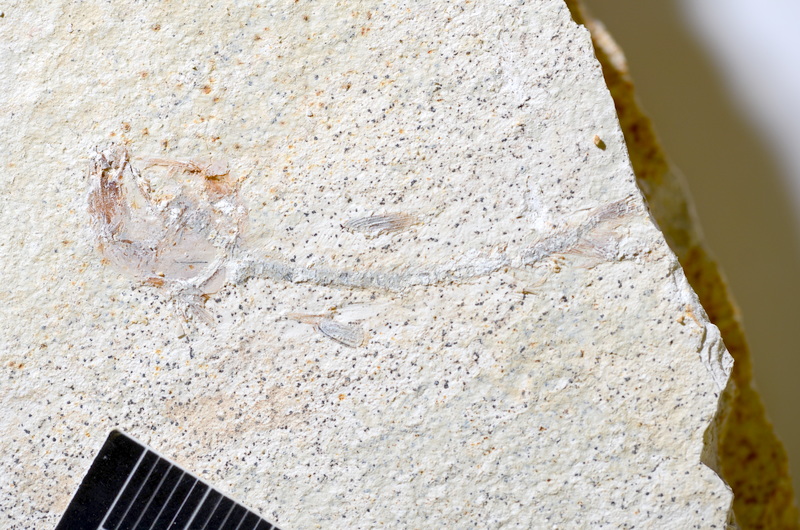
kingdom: Animalia
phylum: Chordata
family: Ascalaboidae
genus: Ebertichthys
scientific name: Ebertichthys ettlingensis
